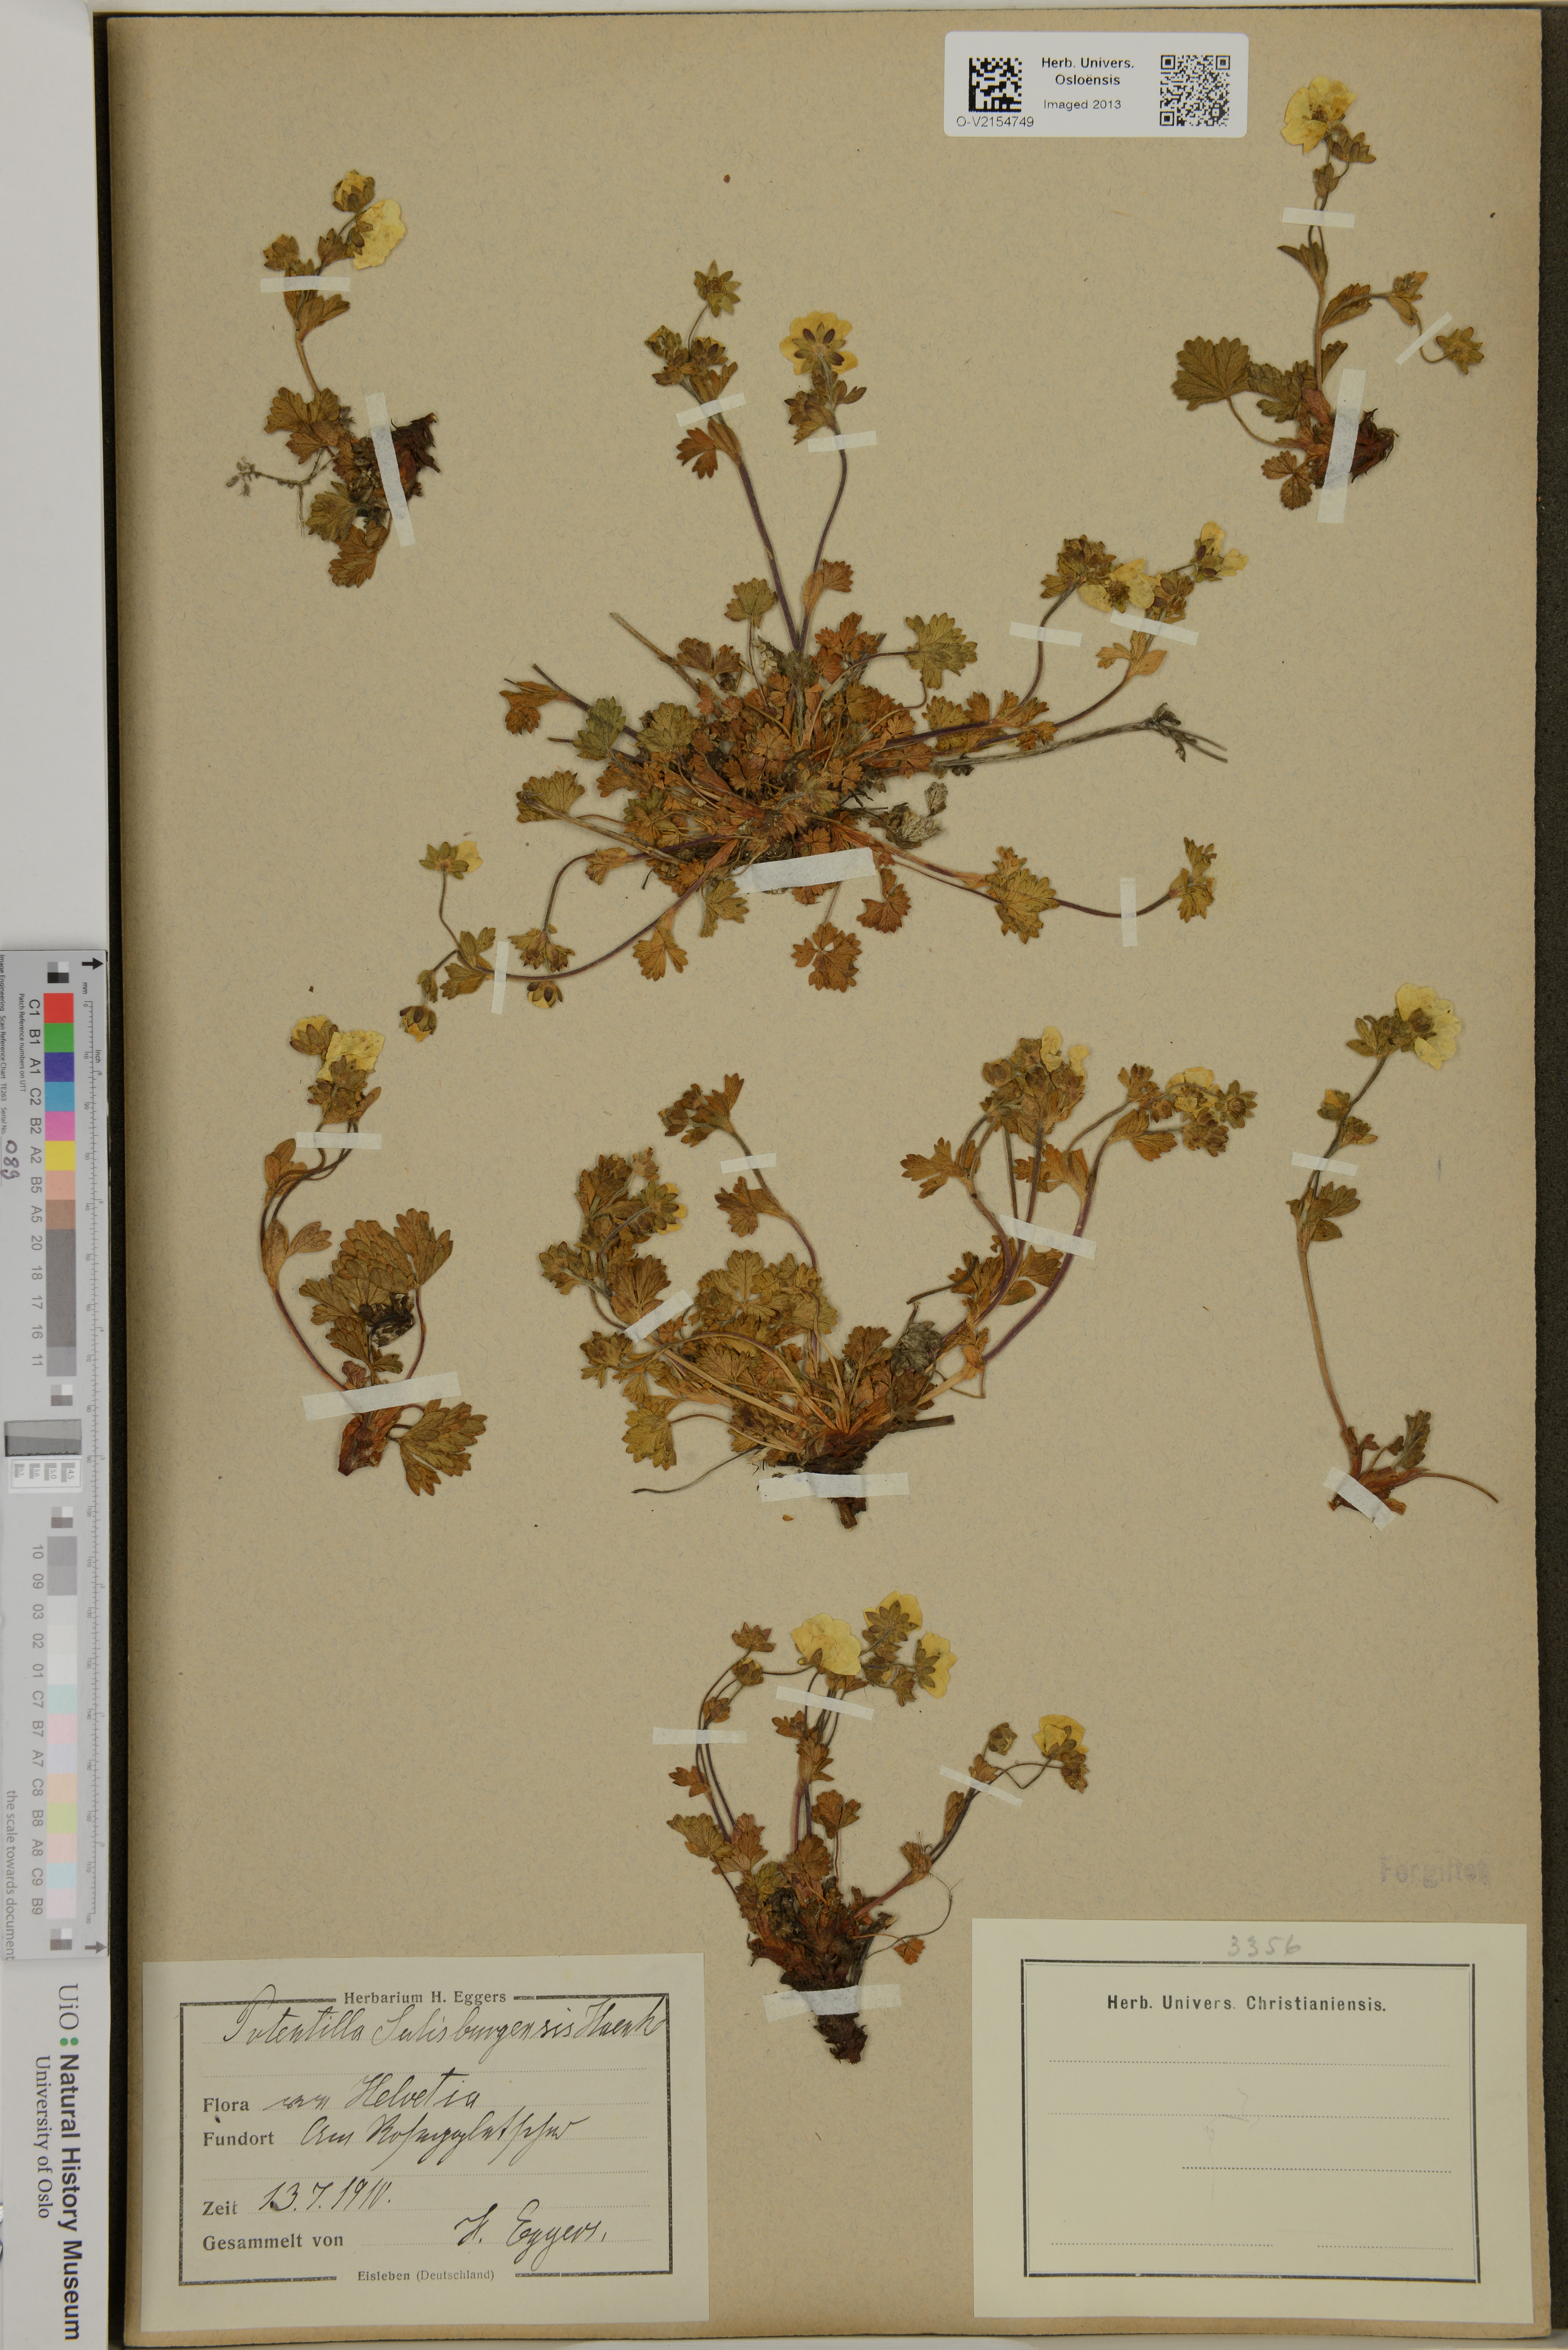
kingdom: Plantae
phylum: Tracheophyta
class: Magnoliopsida
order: Rosales
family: Rosaceae
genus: Potentilla
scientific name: Potentilla
